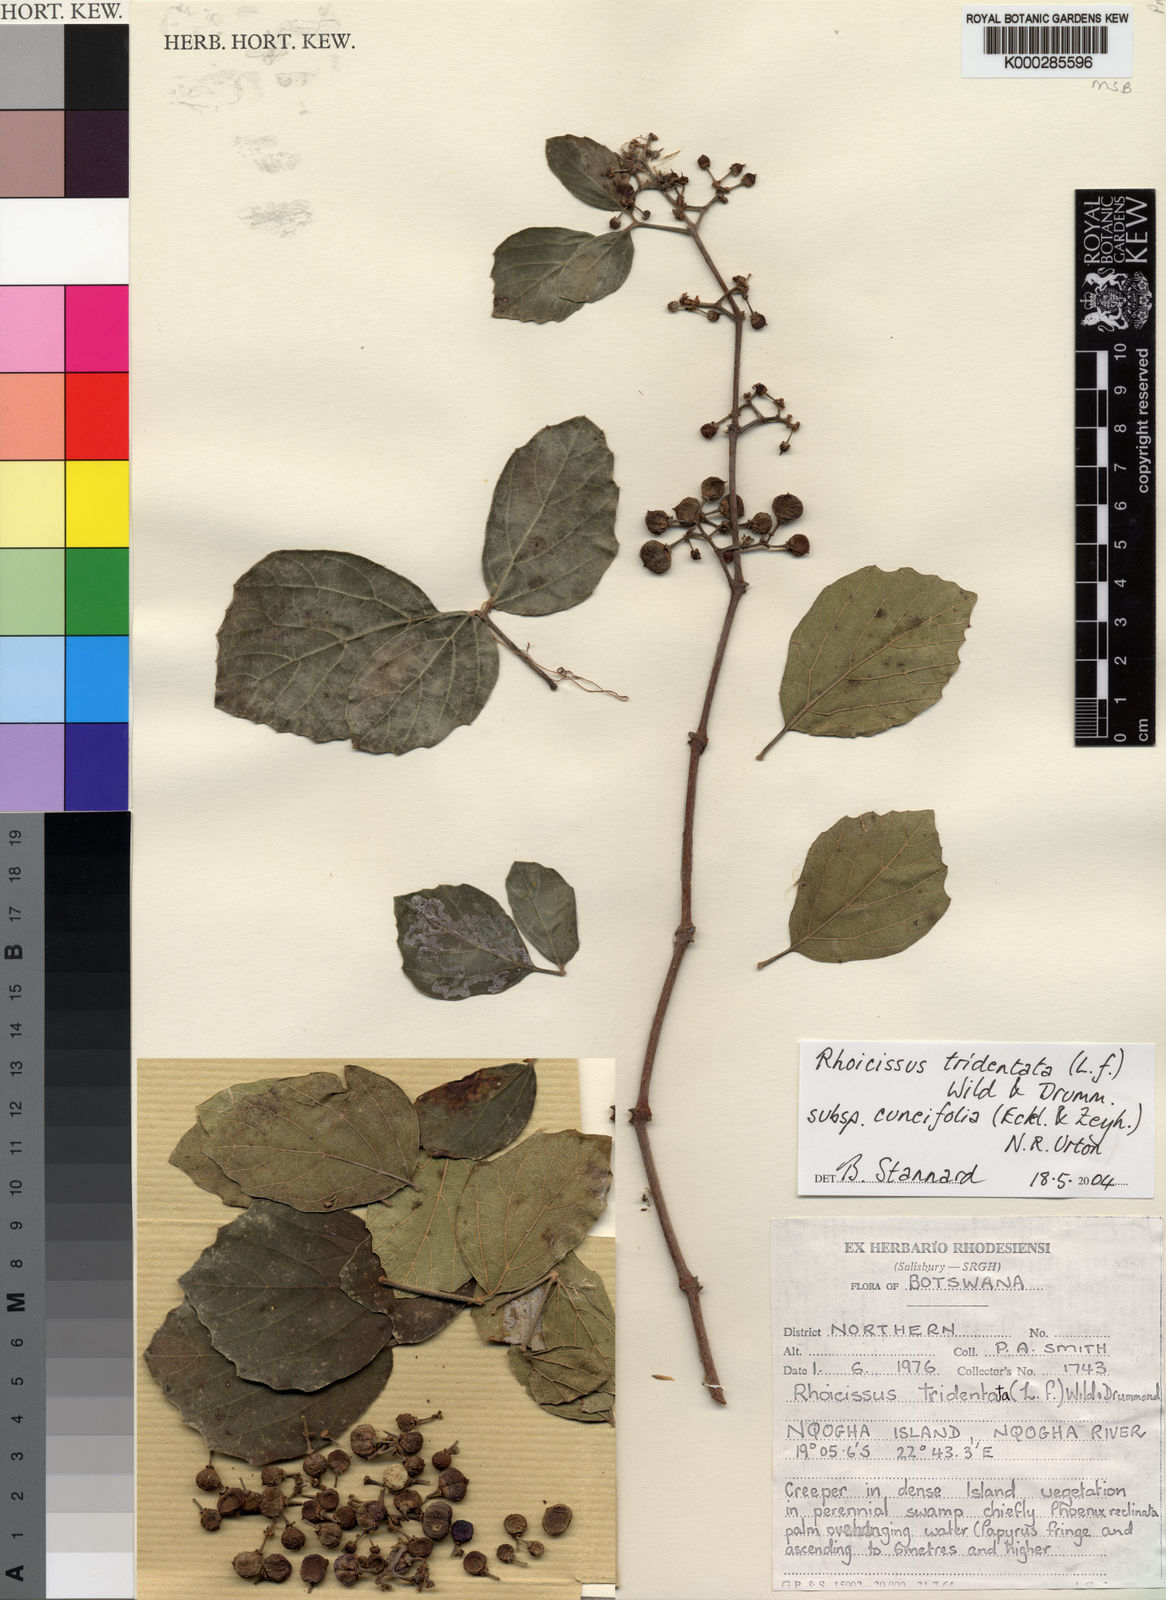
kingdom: Plantae
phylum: Tracheophyta
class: Magnoliopsida
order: Vitales
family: Vitaceae
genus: Rhoicissus
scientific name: Rhoicissus tridentata
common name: Common forest grape
